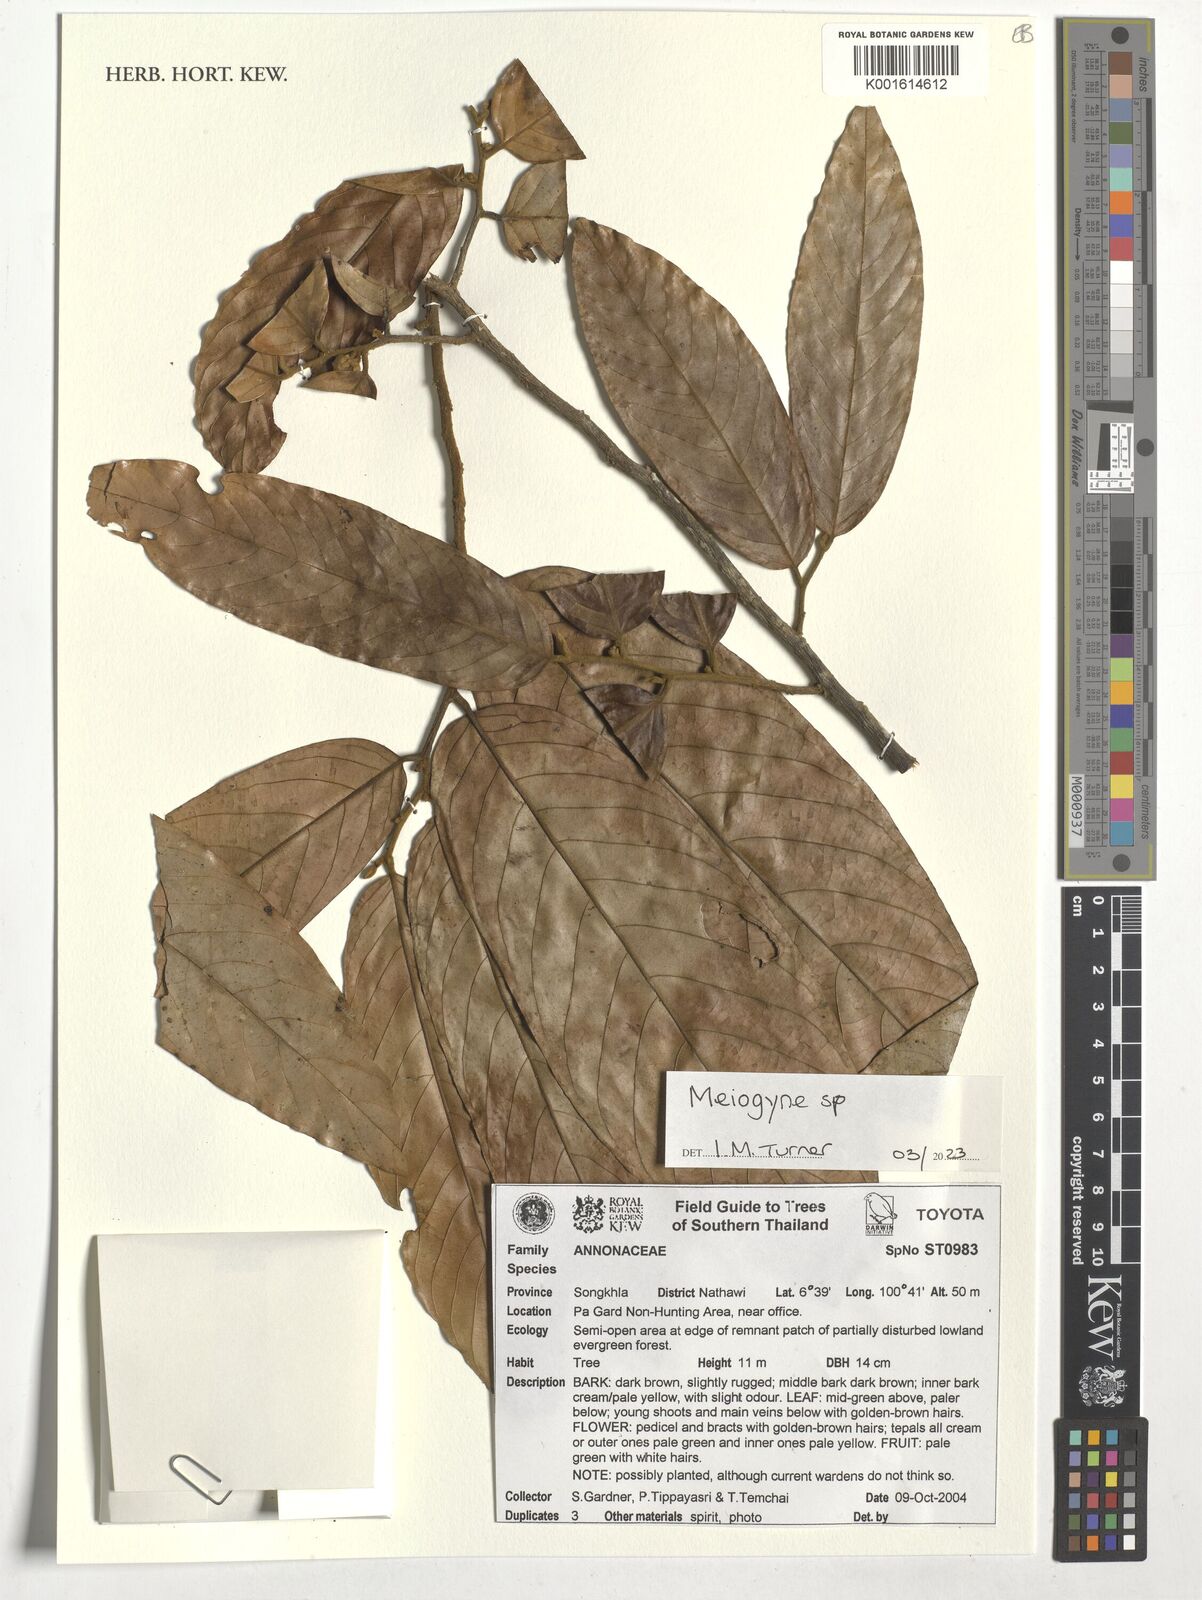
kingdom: Plantae
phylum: Tracheophyta
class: Magnoliopsida
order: Magnoliales
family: Annonaceae
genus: Meiogyne
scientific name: Meiogyne
